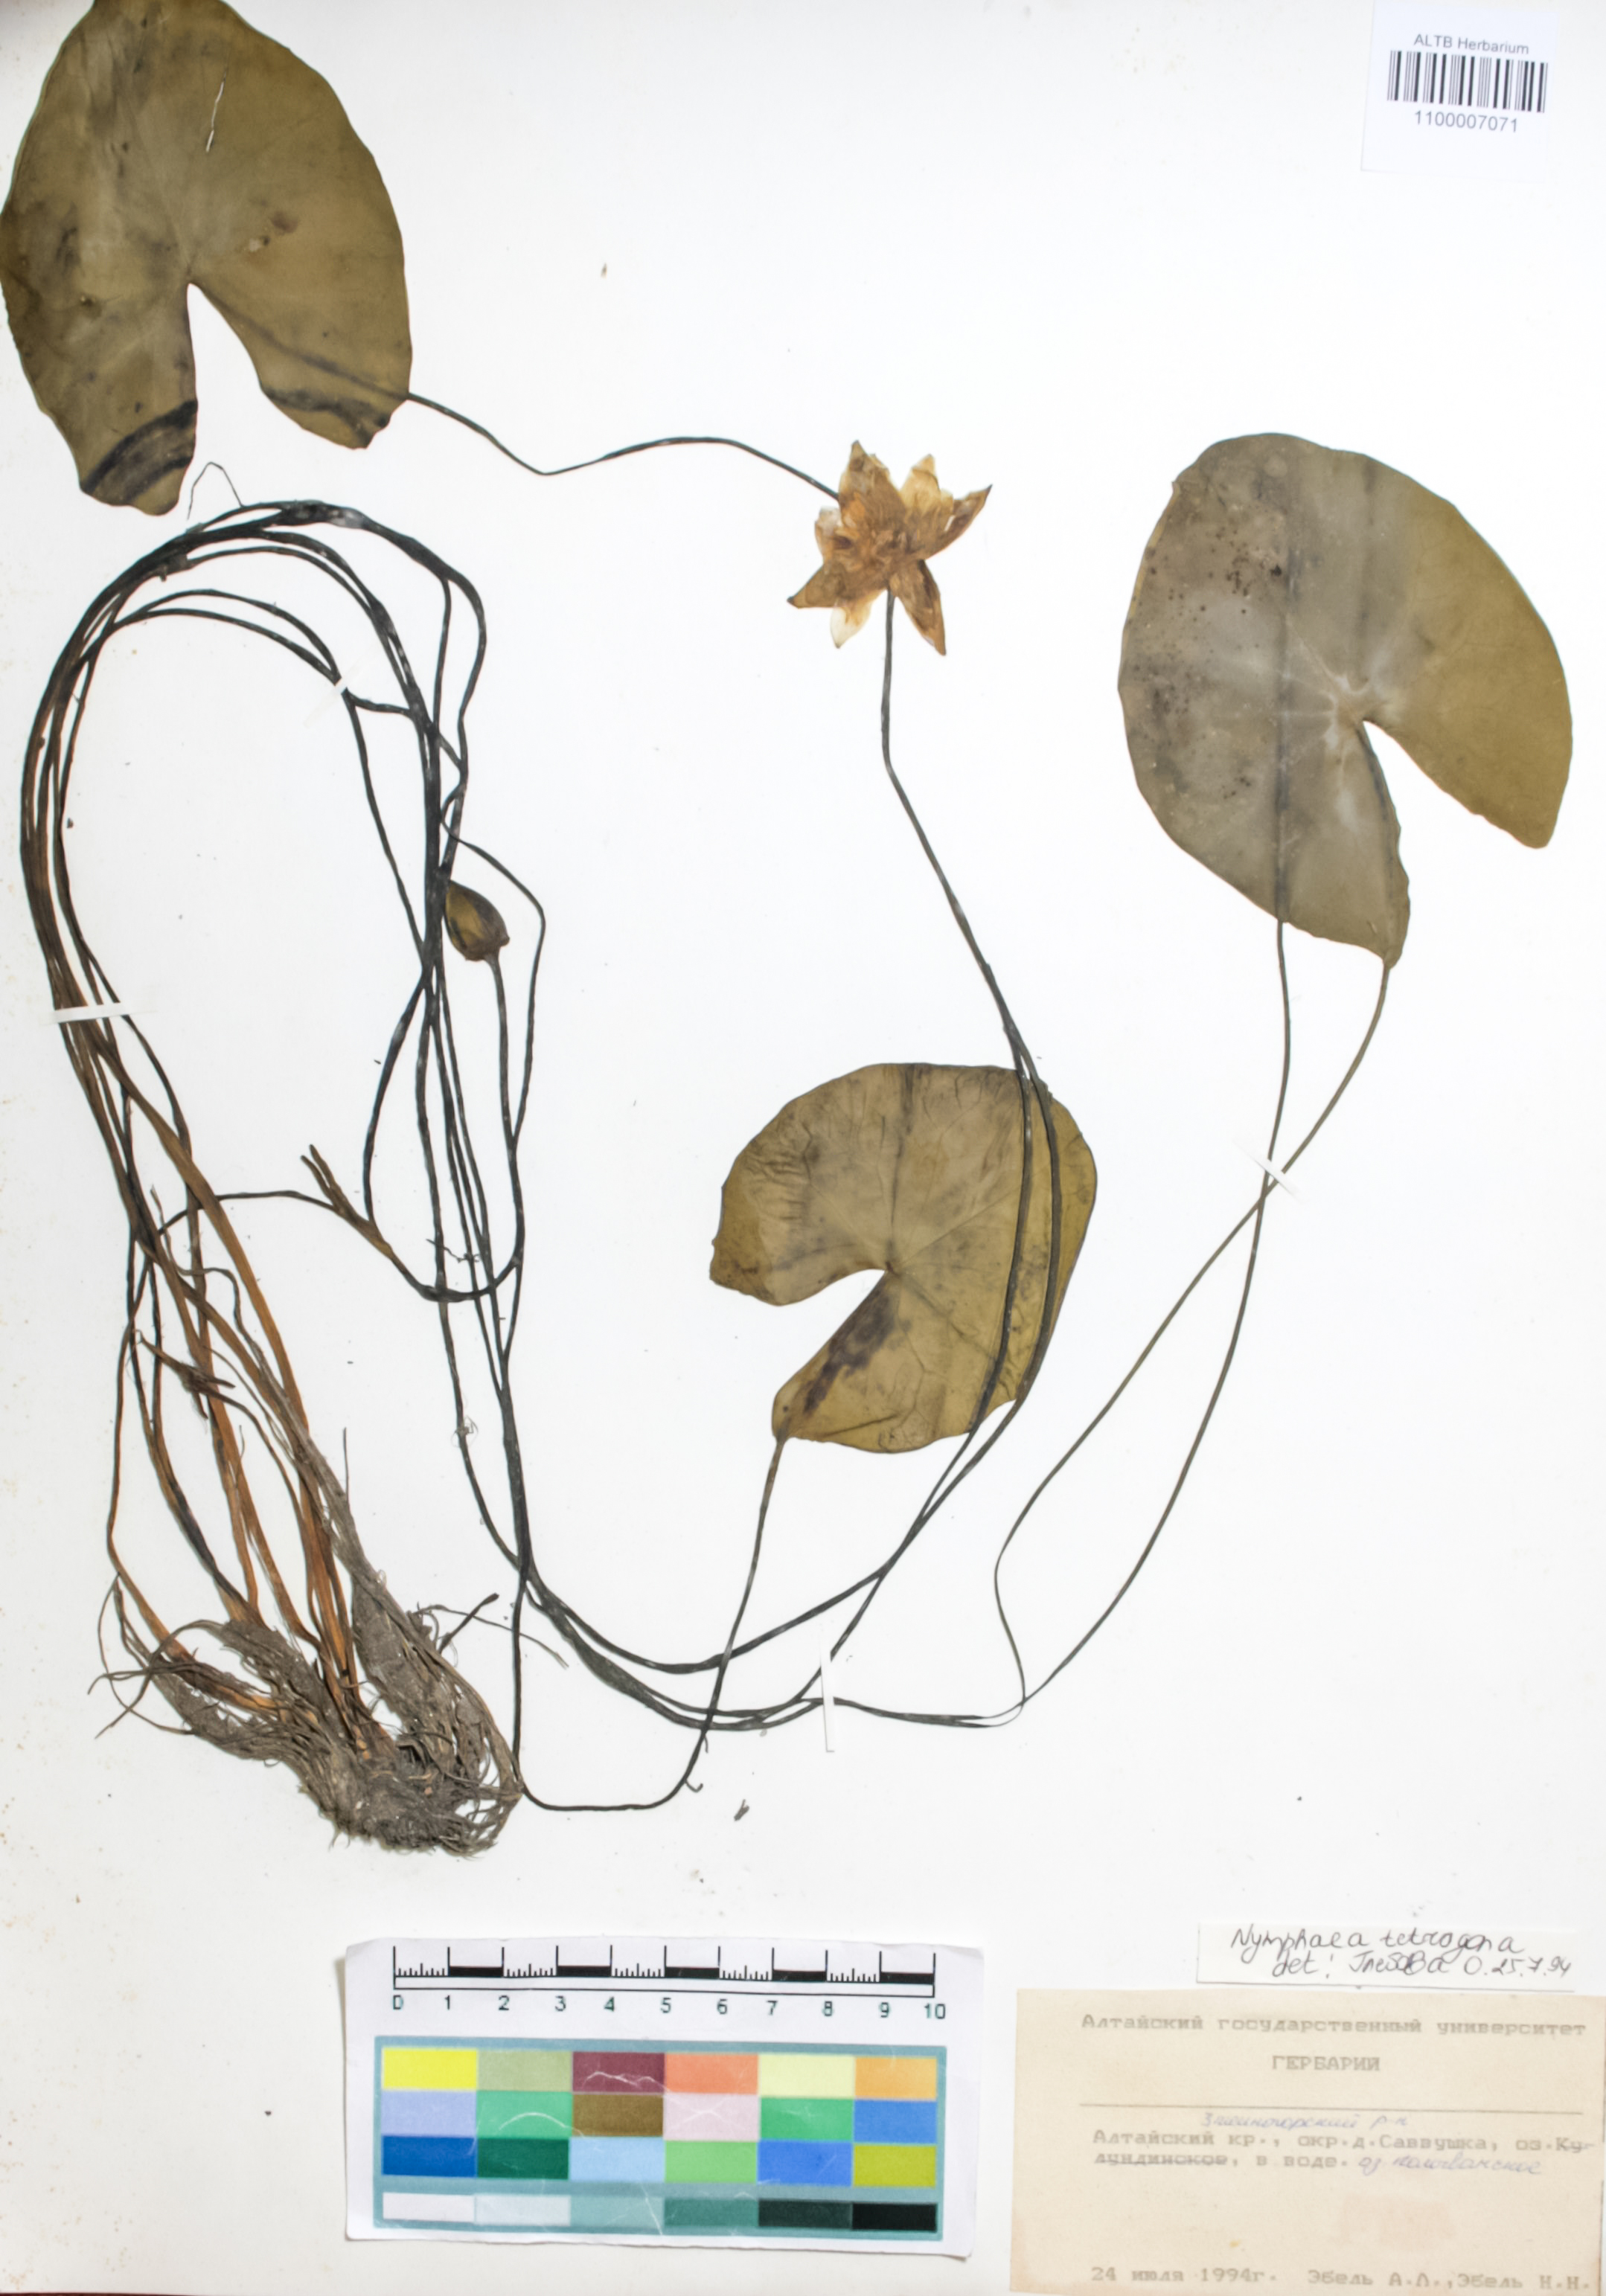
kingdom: Plantae
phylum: Tracheophyta
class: Magnoliopsida
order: Nymphaeales
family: Nymphaeaceae
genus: Nymphaea
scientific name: Nymphaea tetragona
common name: Pygmy water-lily
